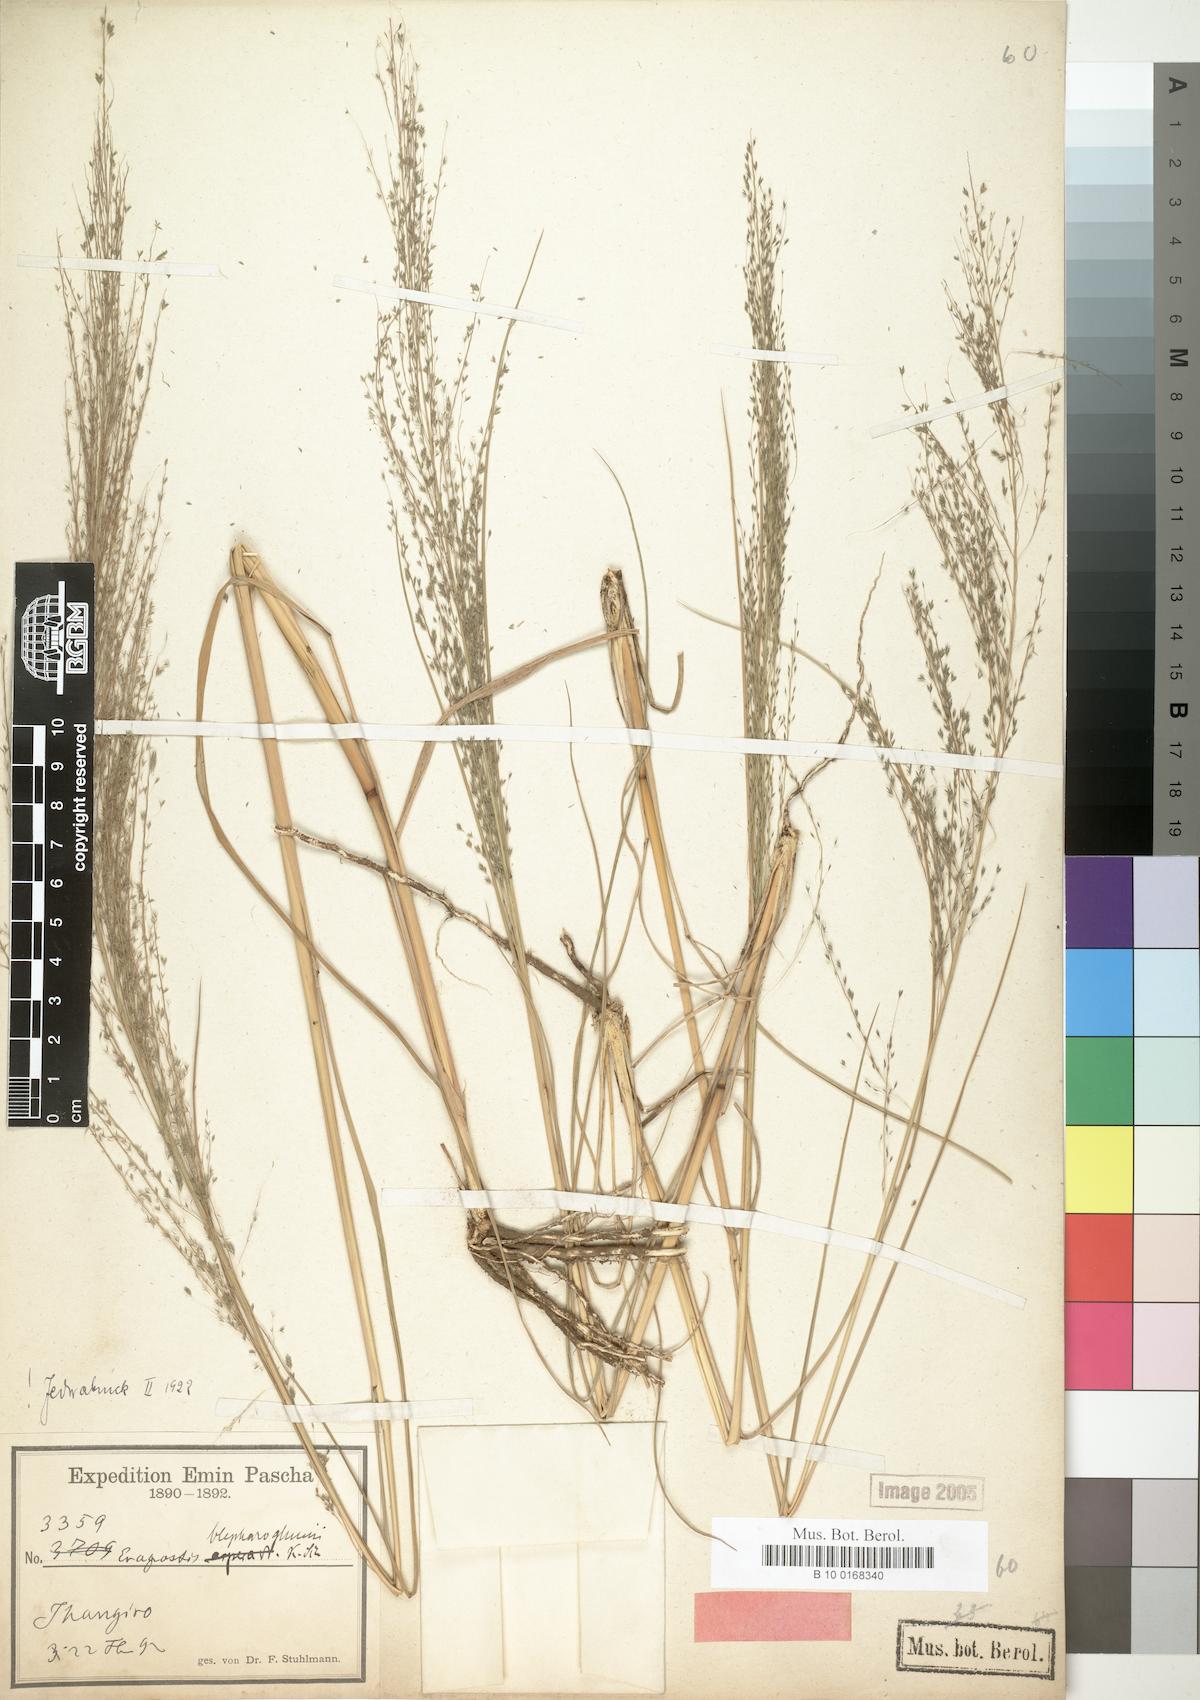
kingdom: Plantae
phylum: Tracheophyta
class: Liliopsida
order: Poales
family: Poaceae
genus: Eragrostis
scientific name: Eragrostis olivacea
